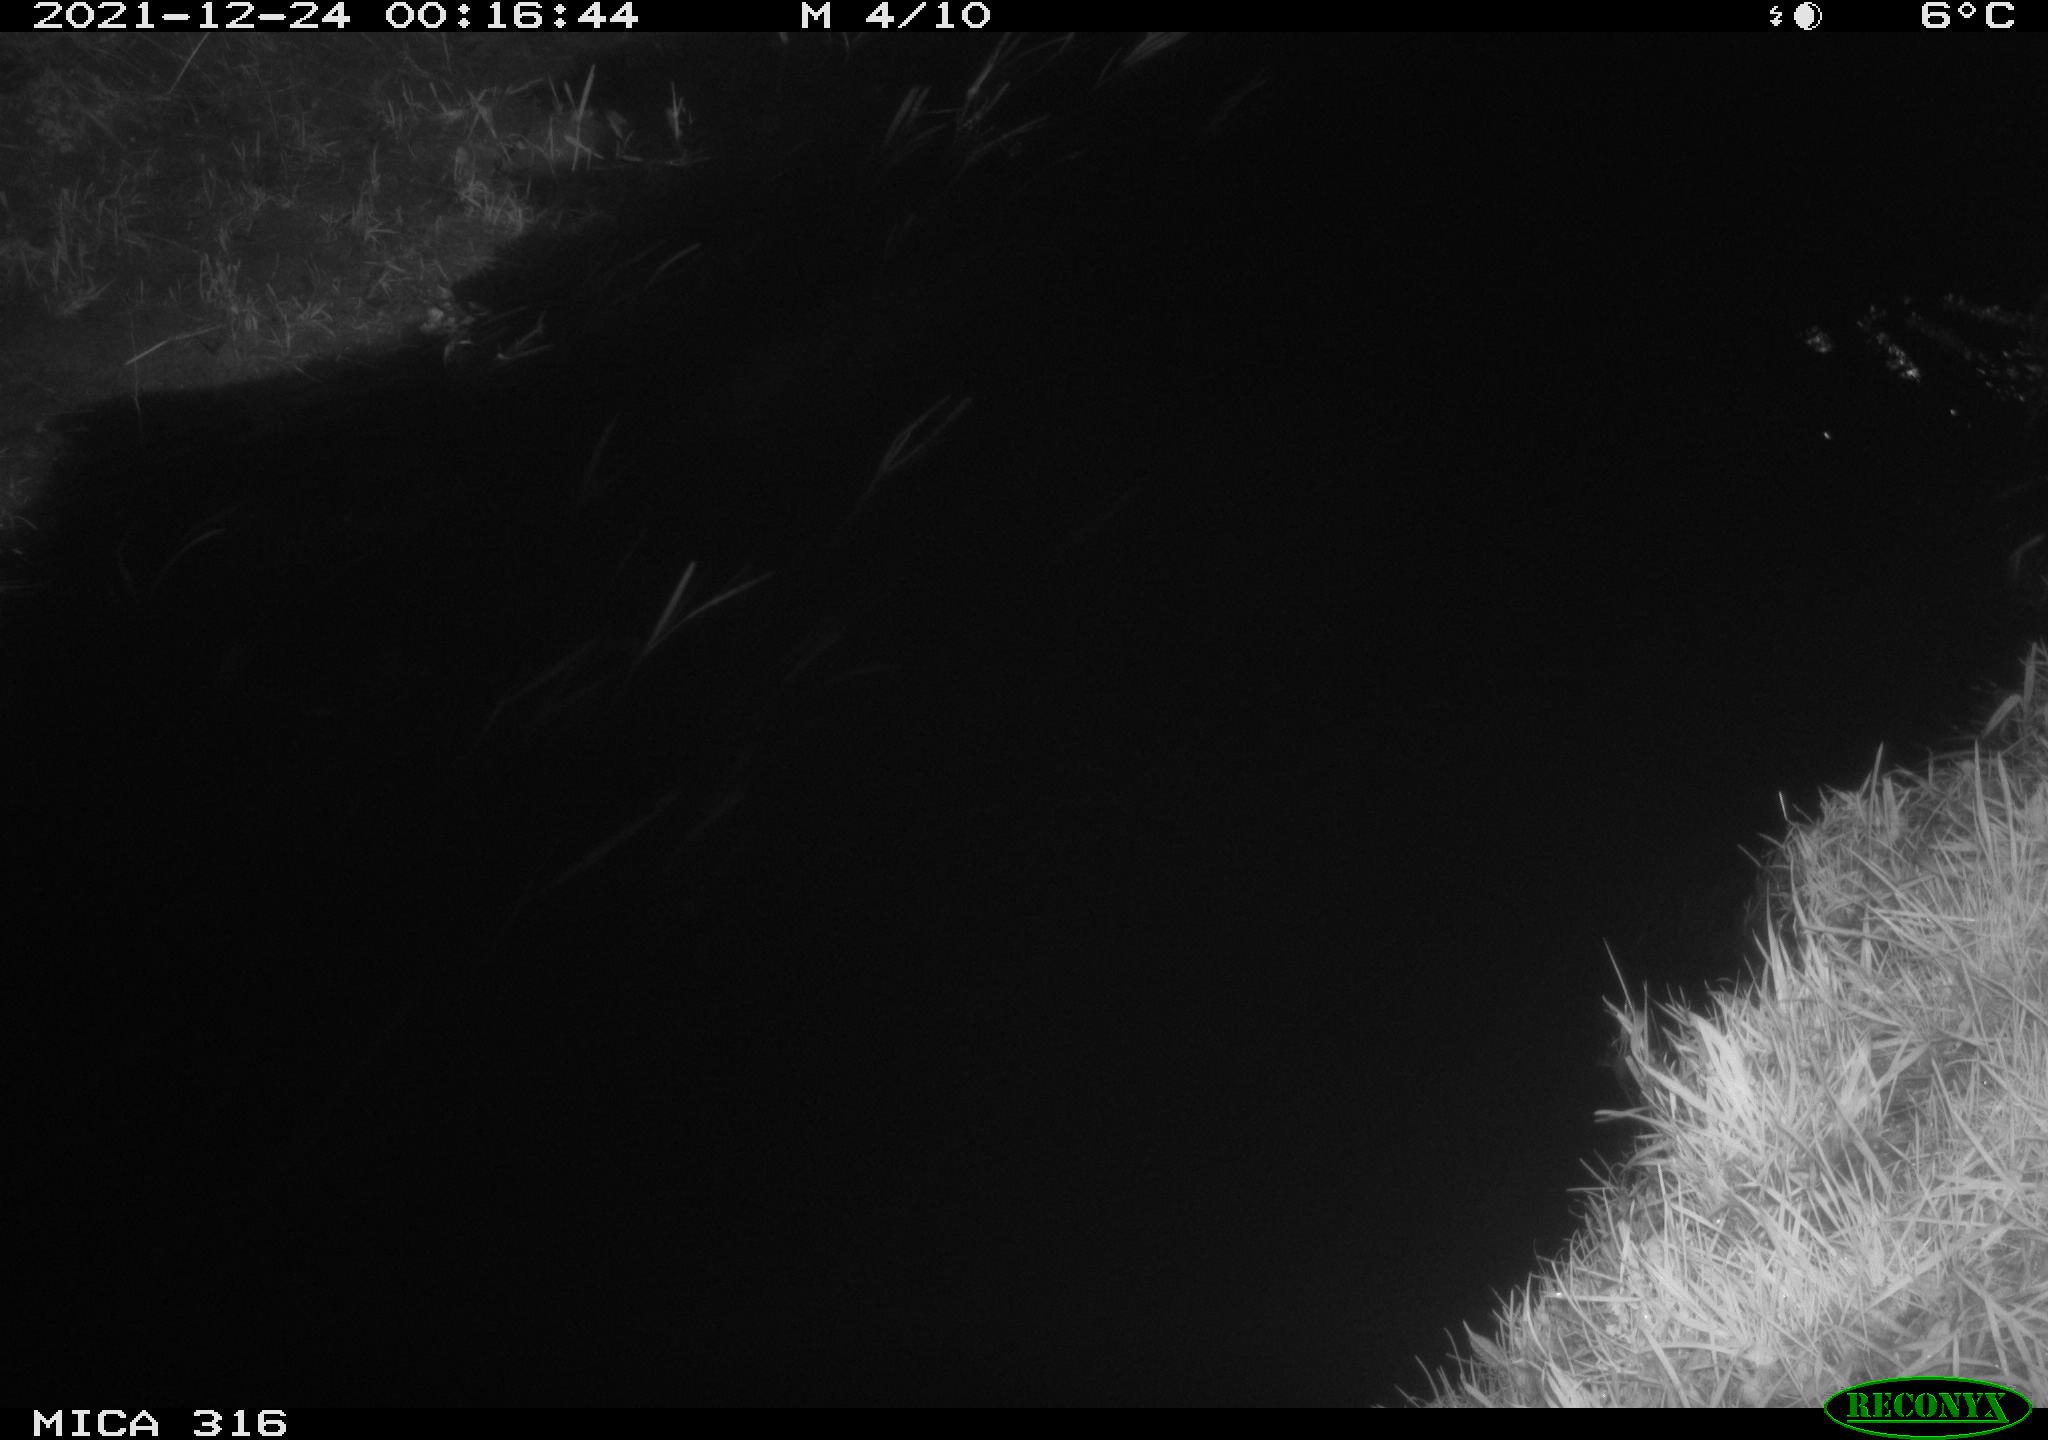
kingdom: Animalia
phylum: Chordata
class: Mammalia
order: Rodentia
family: Muridae
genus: Rattus
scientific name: Rattus norvegicus
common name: Brown rat
